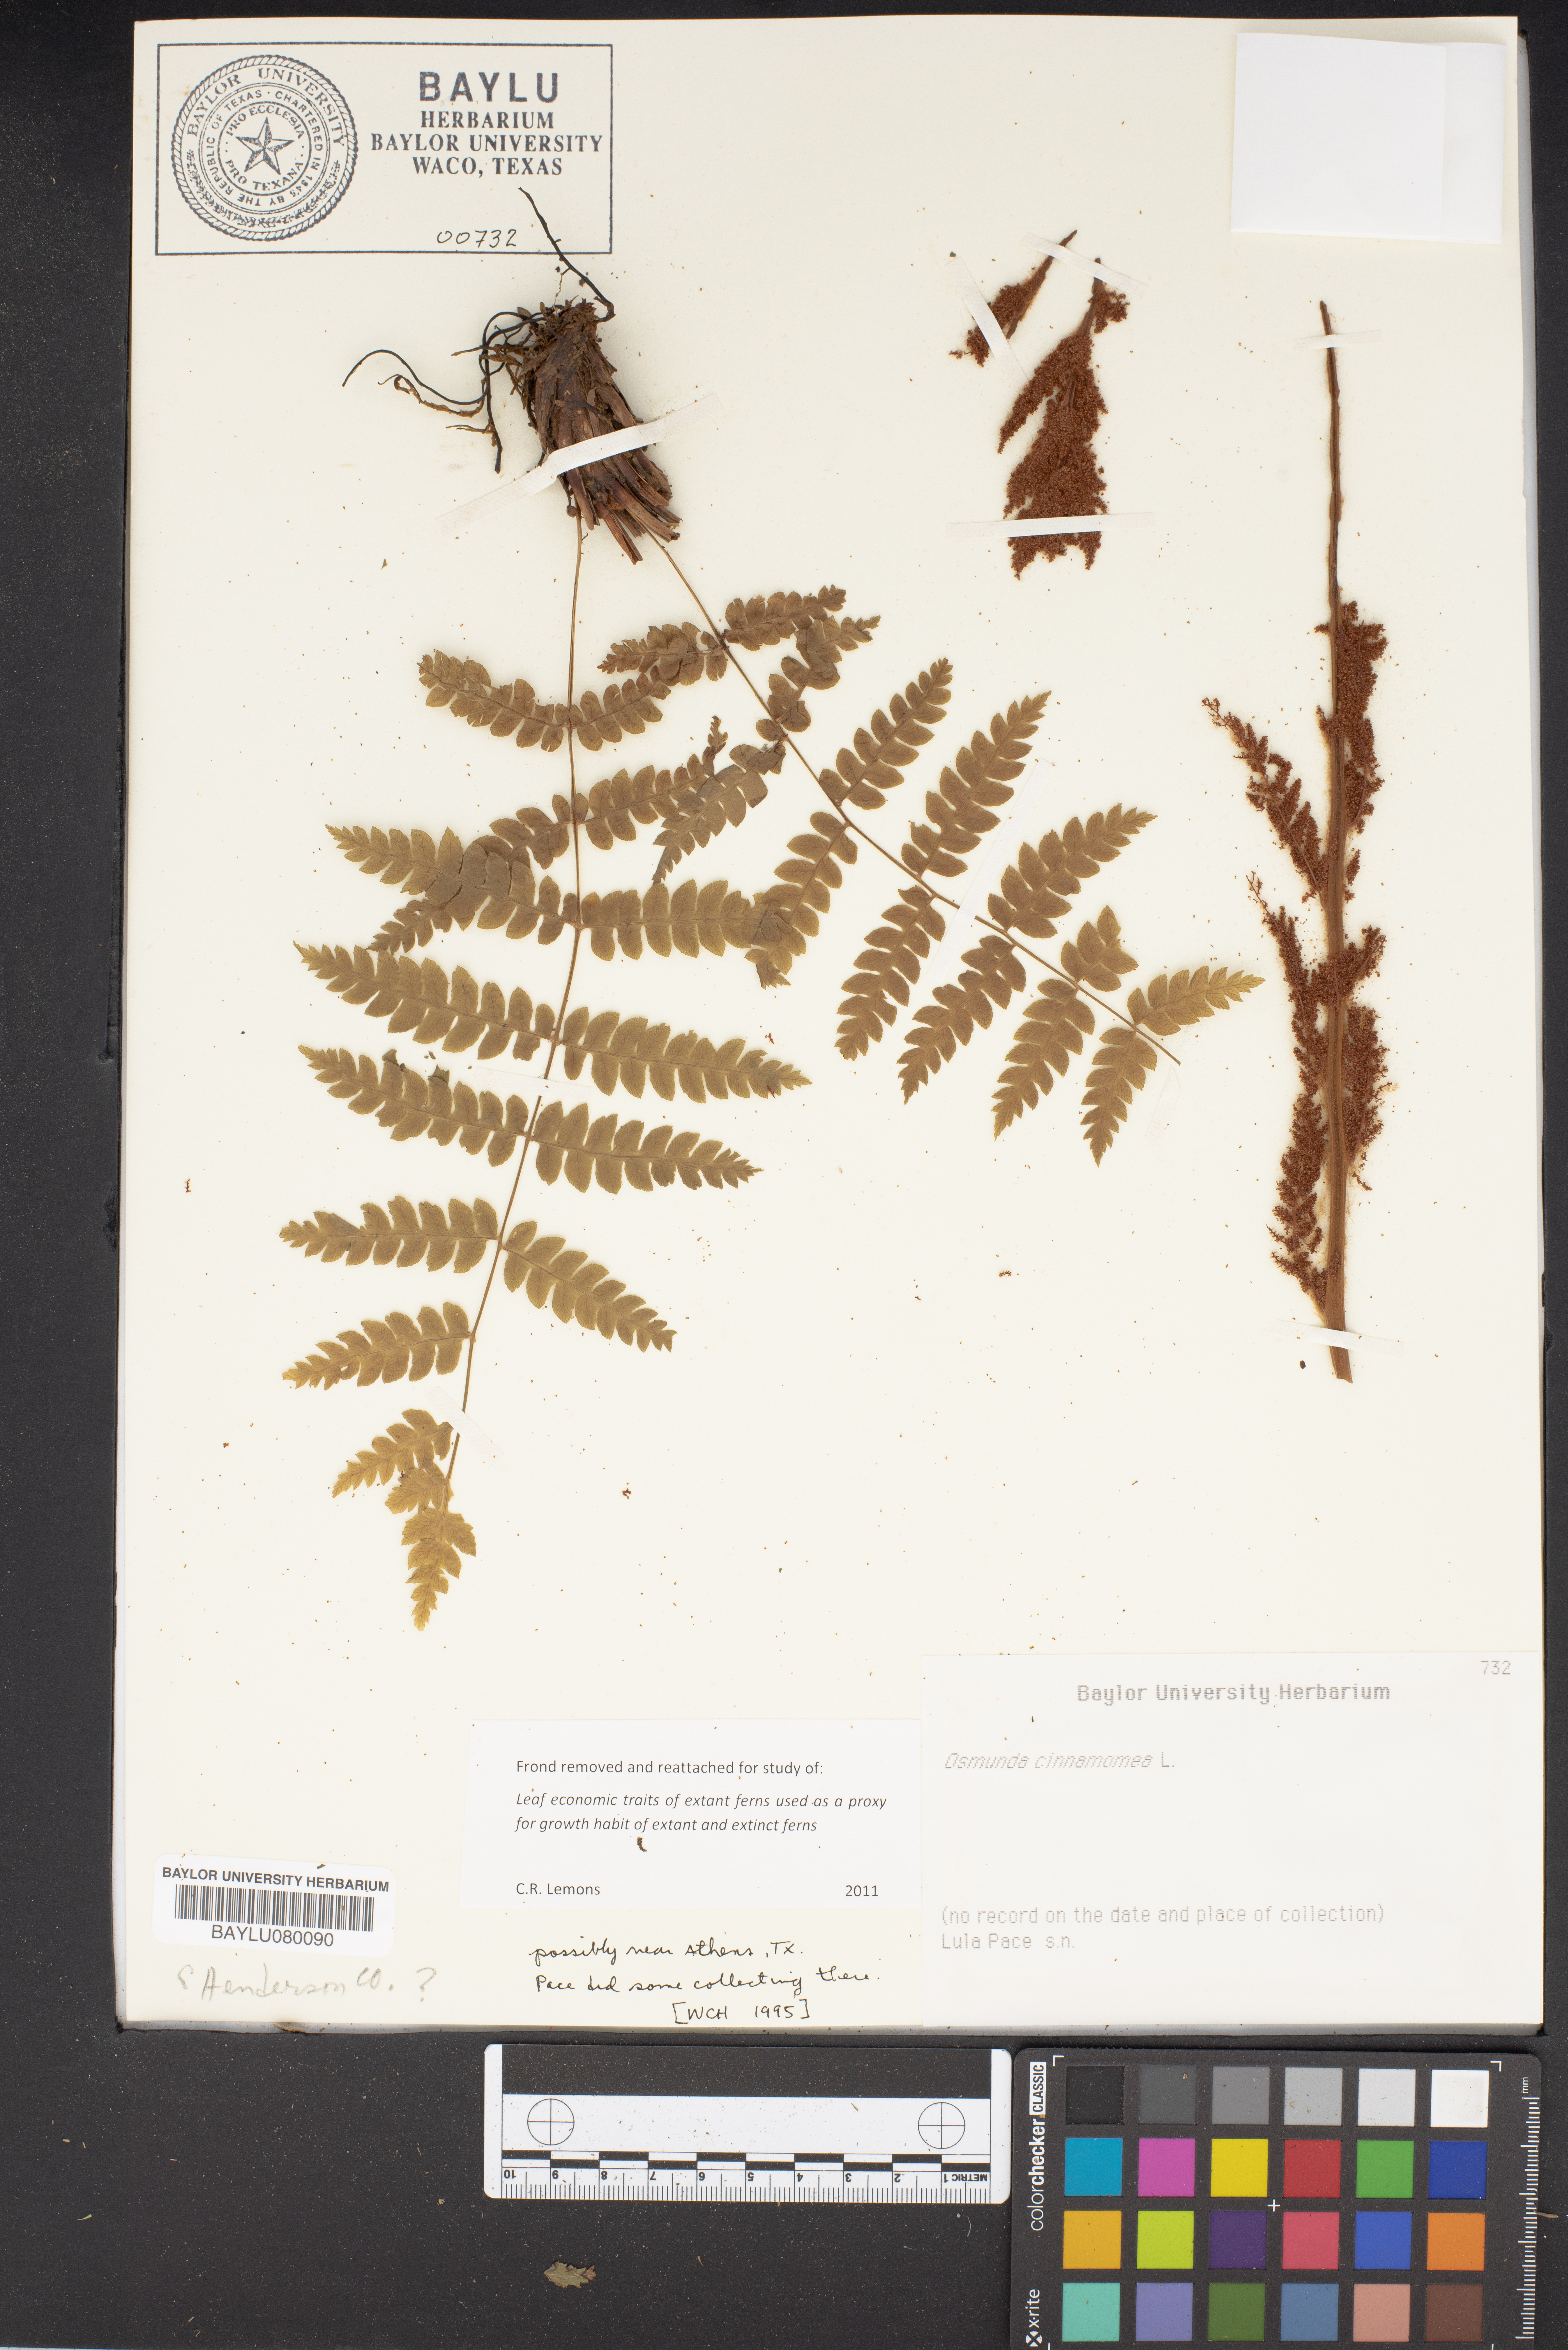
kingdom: Plantae
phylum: Tracheophyta
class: Polypodiopsida
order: Osmundales
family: Osmundaceae
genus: Osmundastrum
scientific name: Osmundastrum cinnamomeum
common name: Cinnamon fern
